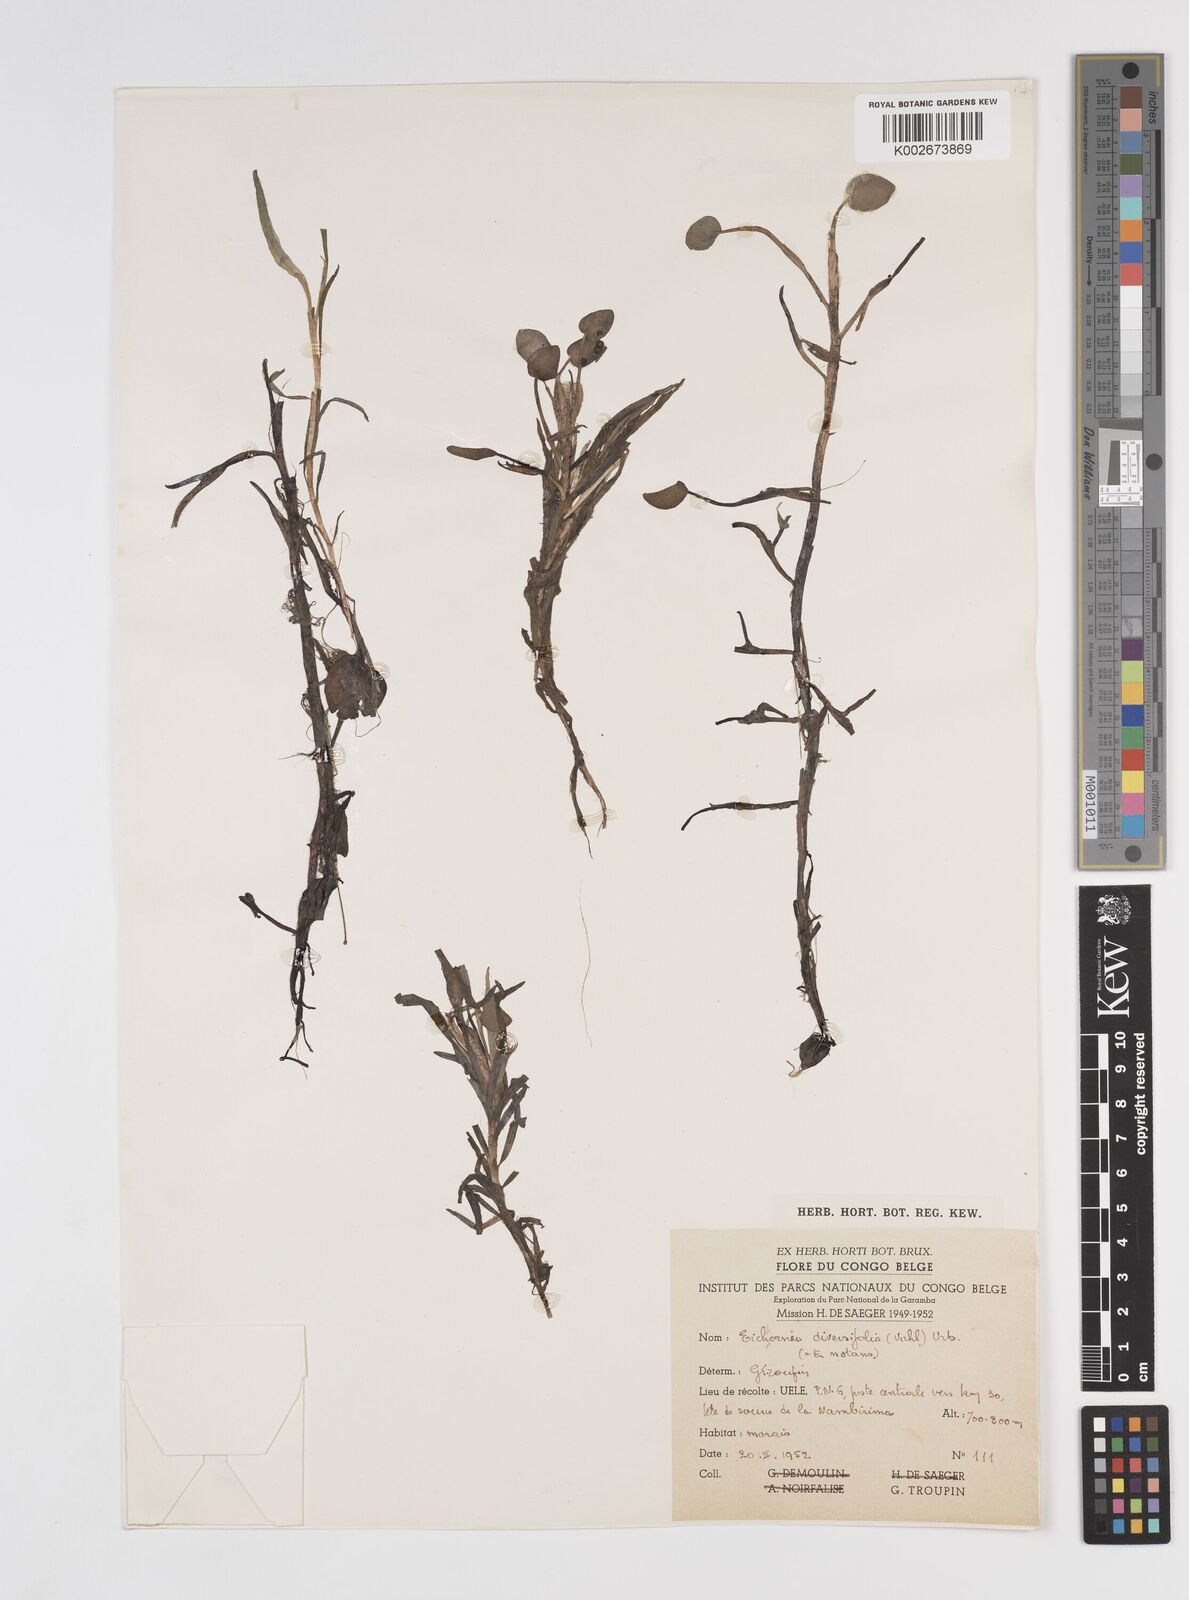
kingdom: Plantae
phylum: Tracheophyta
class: Liliopsida
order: Commelinales
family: Pontederiaceae
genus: Pontederia
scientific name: Pontederia natans
